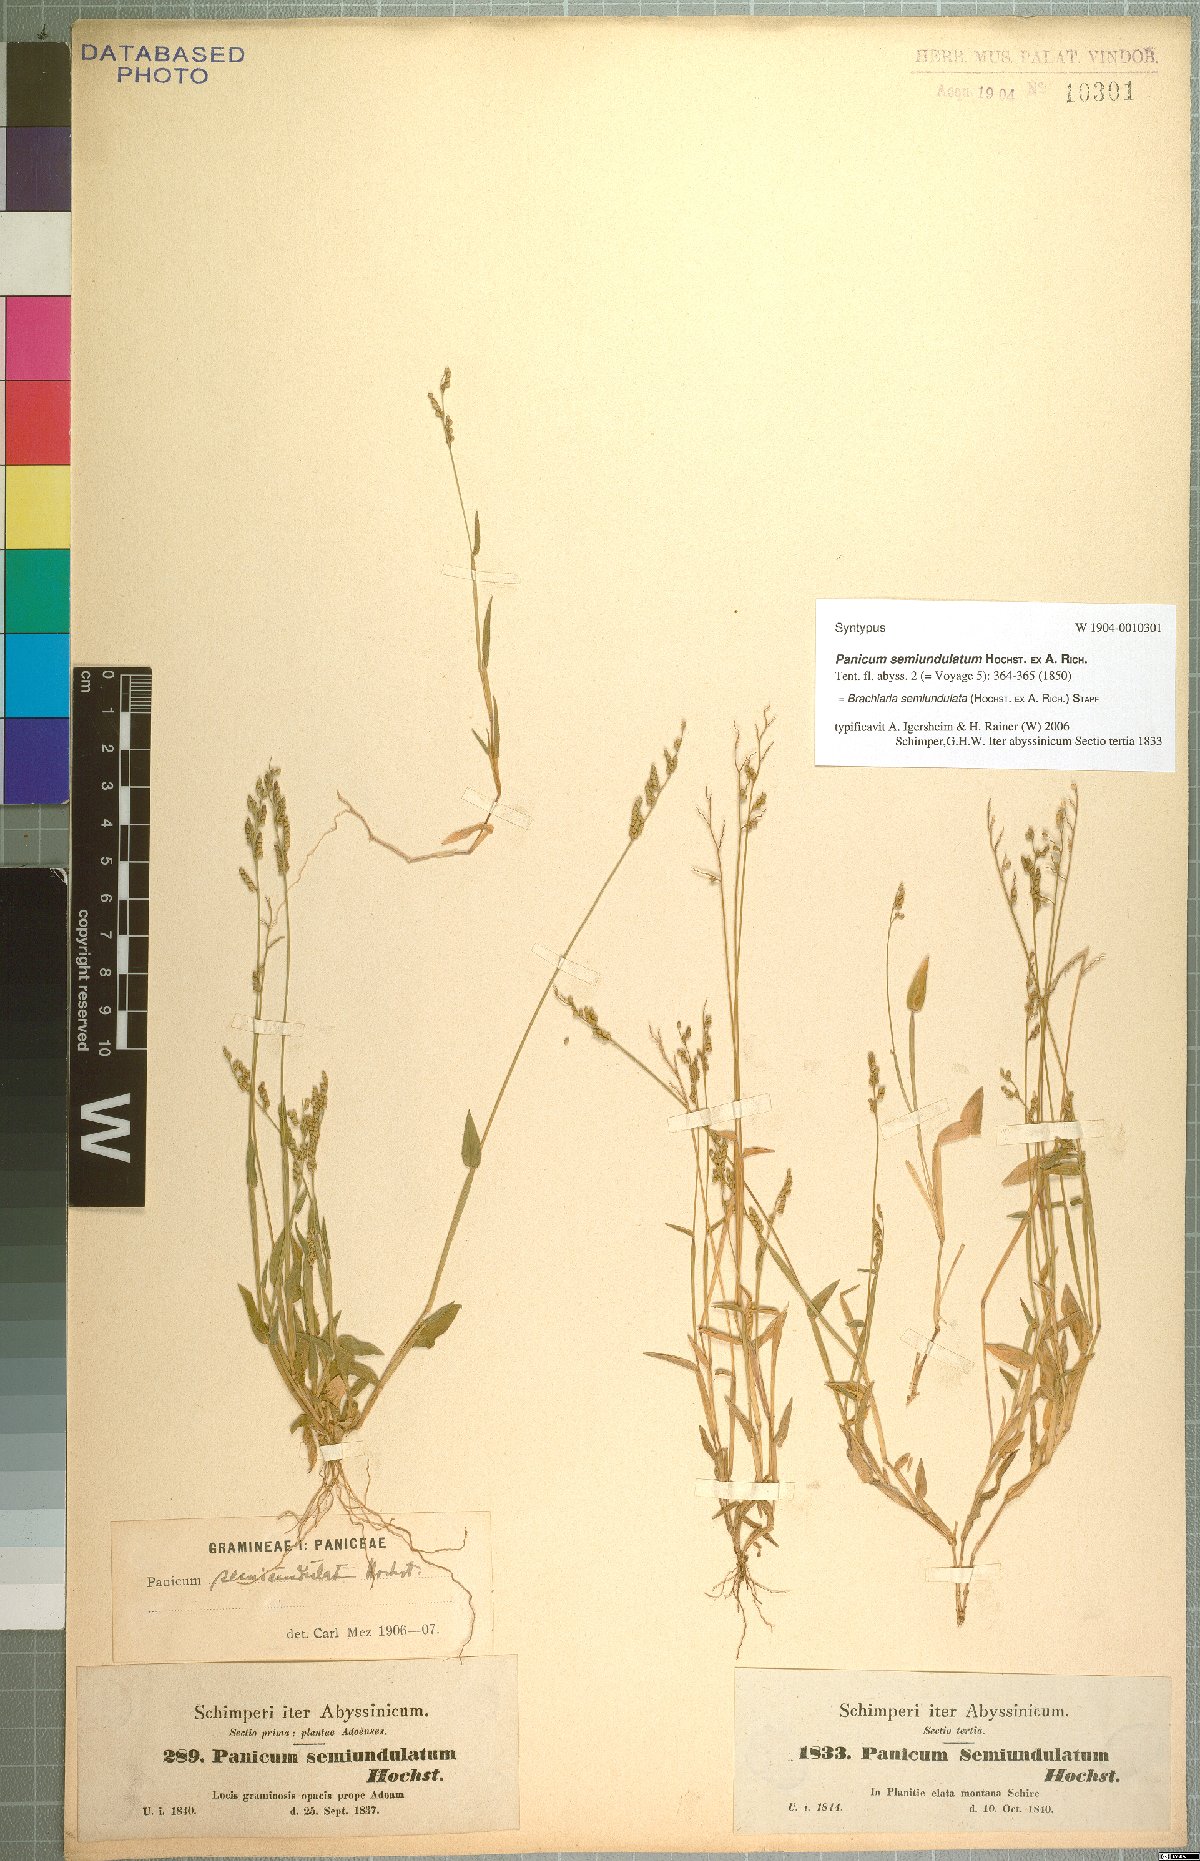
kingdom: Plantae
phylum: Tracheophyta
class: Liliopsida
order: Poales
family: Poaceae
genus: Urochloa
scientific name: Urochloa semiundulata
